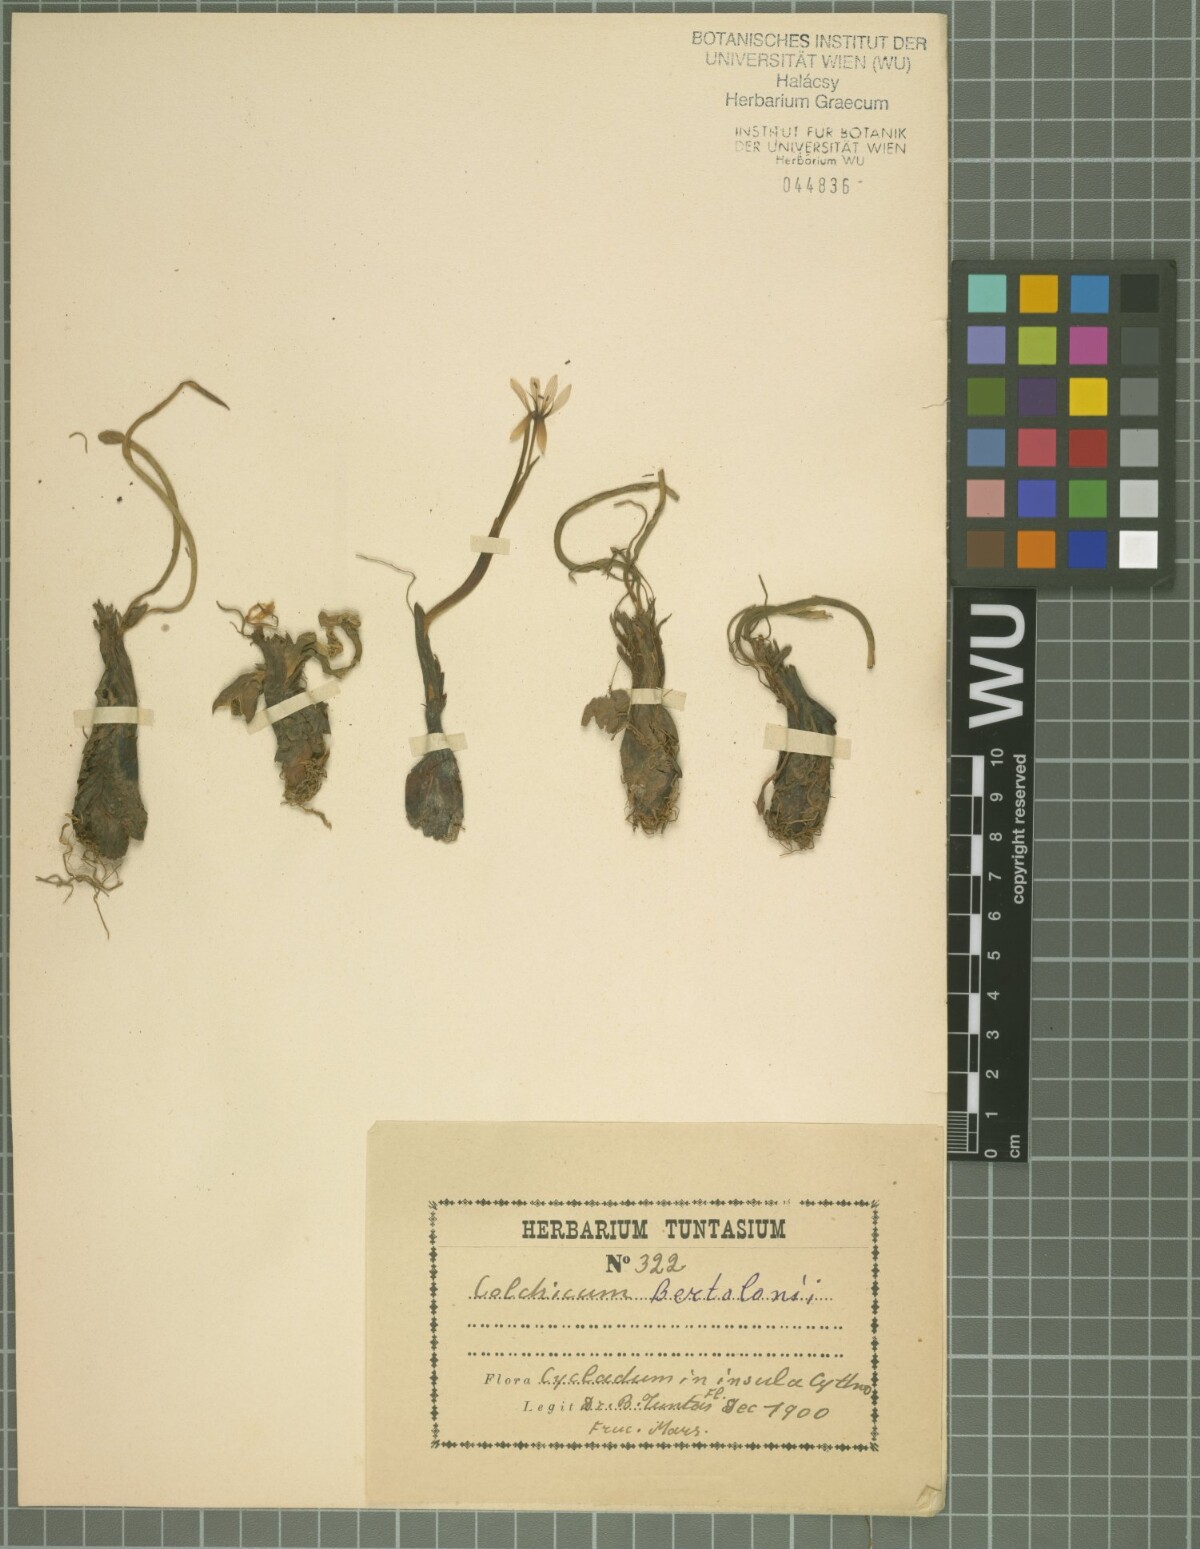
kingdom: Plantae
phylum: Tracheophyta
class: Liliopsida
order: Liliales
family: Colchicaceae
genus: Colchicum
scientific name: Colchicum cupanii
